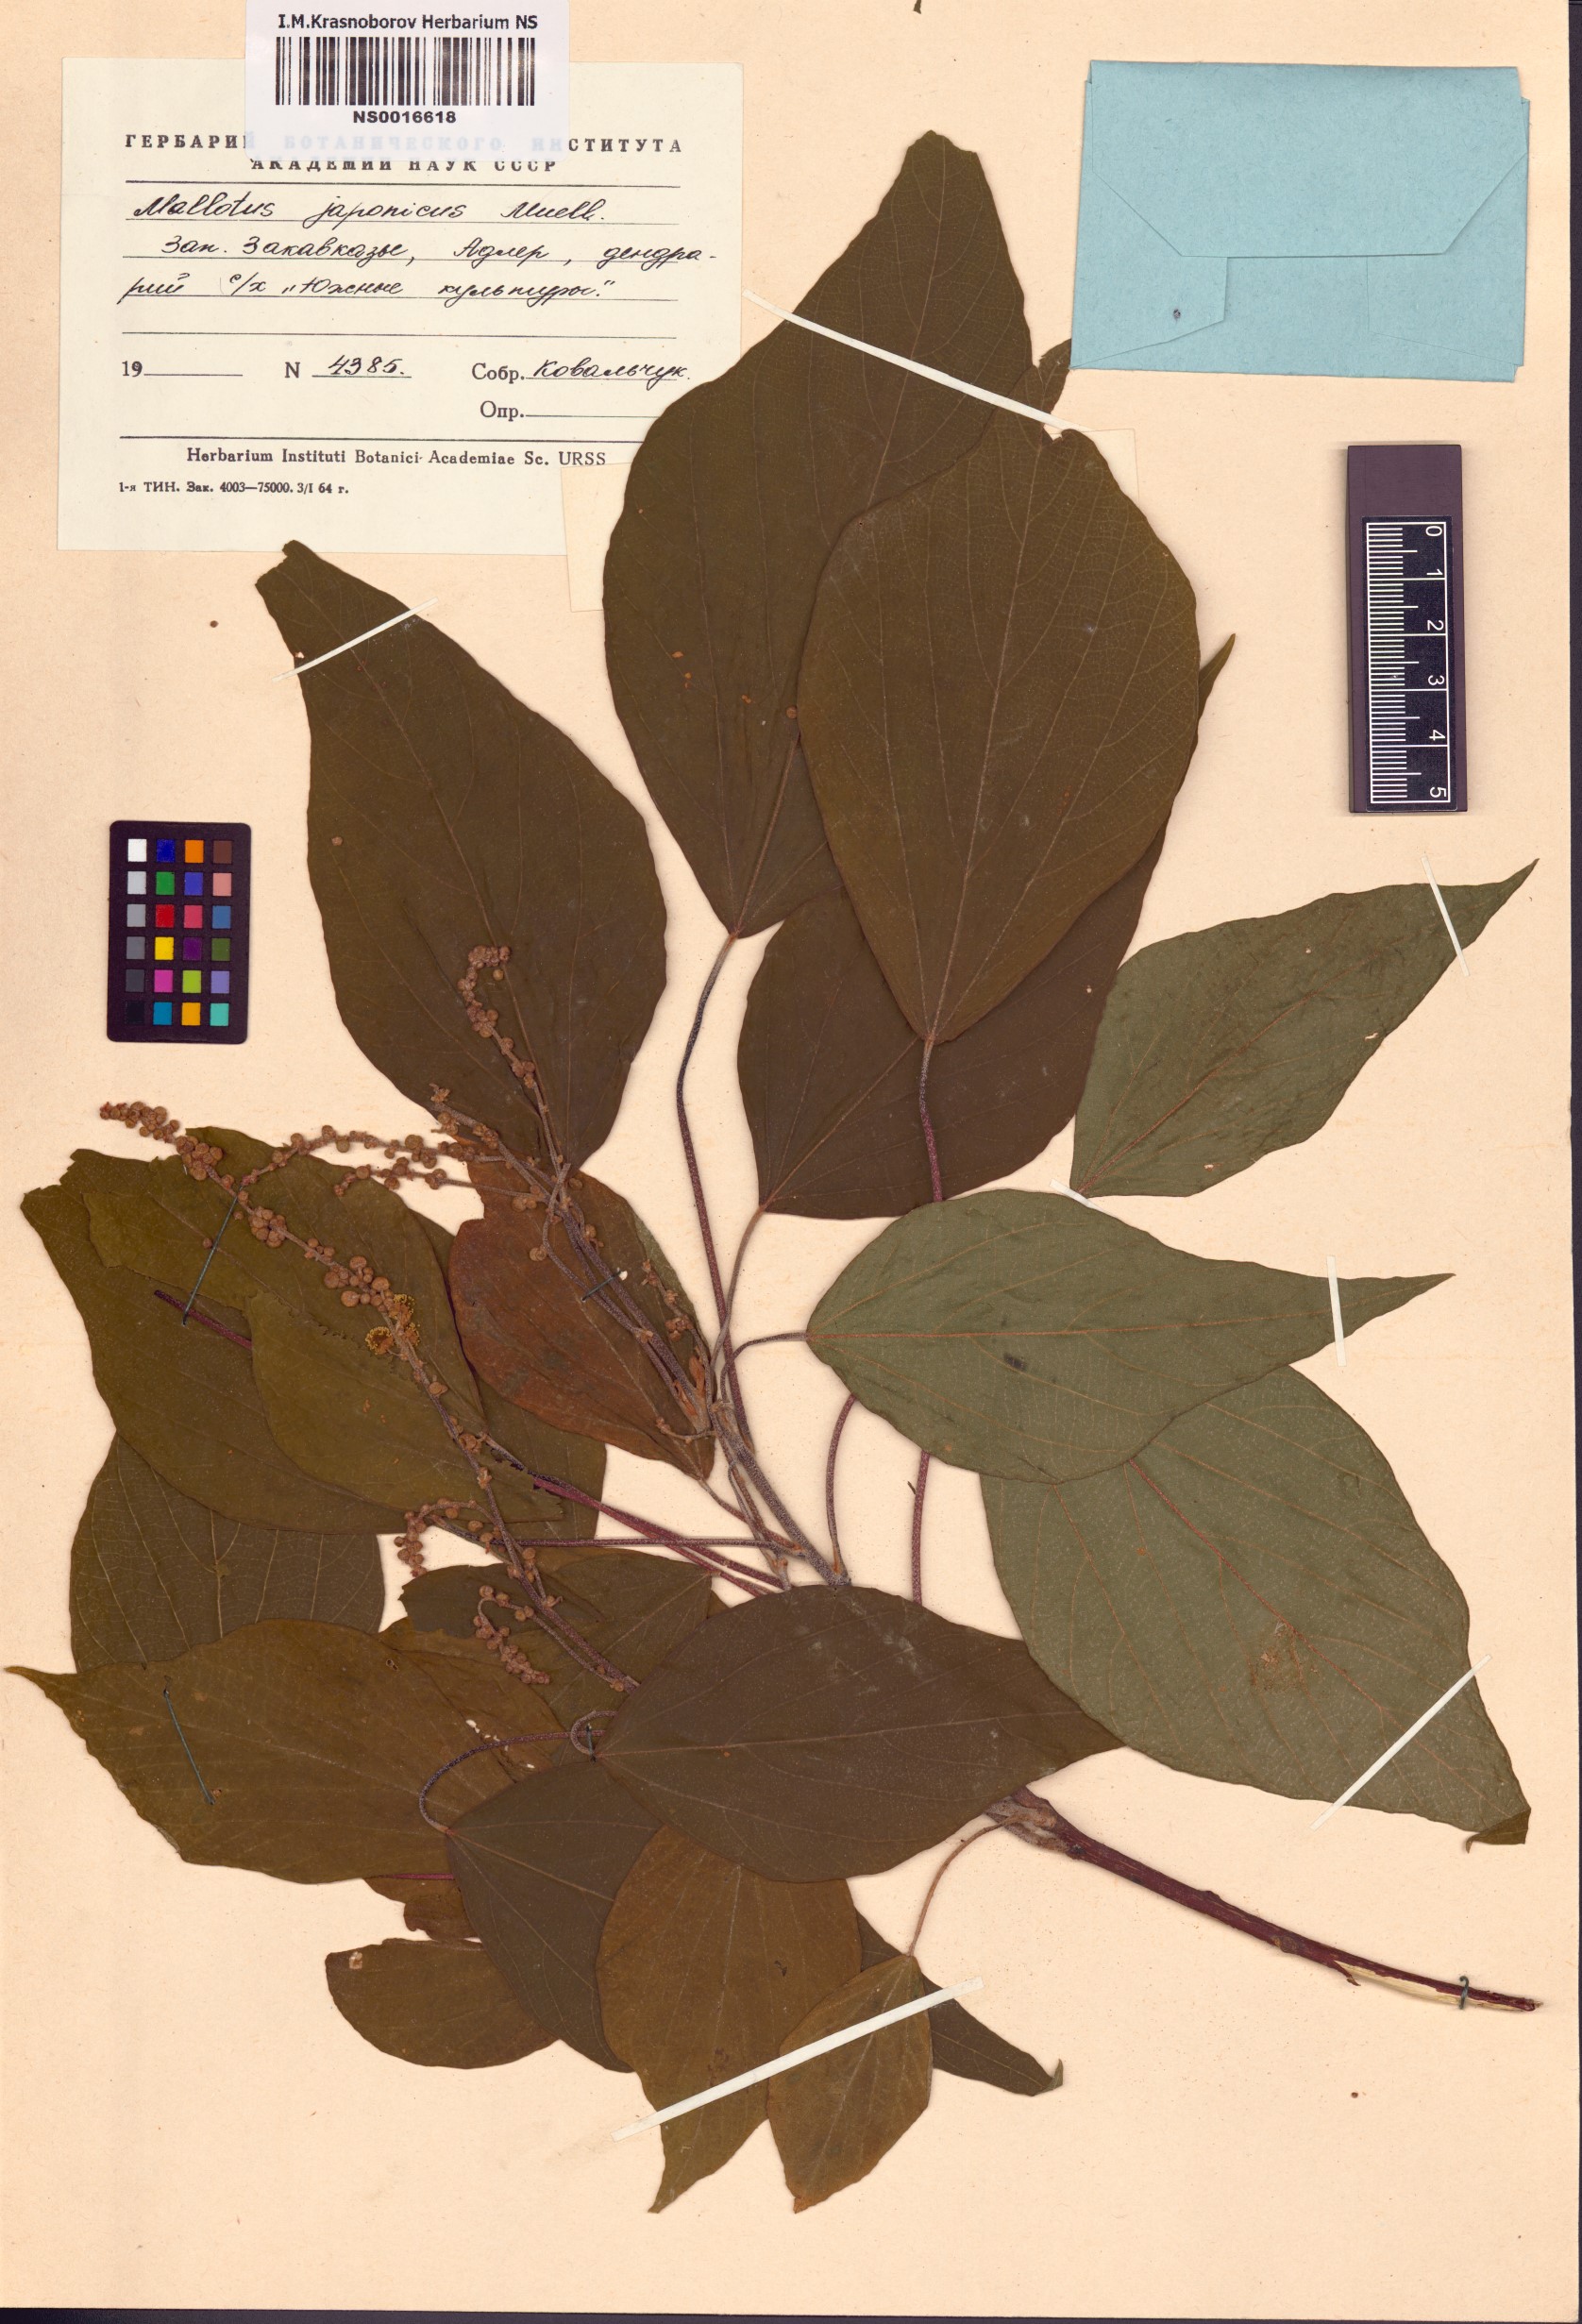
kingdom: Plantae
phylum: Tracheophyta
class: Magnoliopsida
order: Malpighiales
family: Euphorbiaceae
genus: Mallotus
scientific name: Mallotus japonicus
